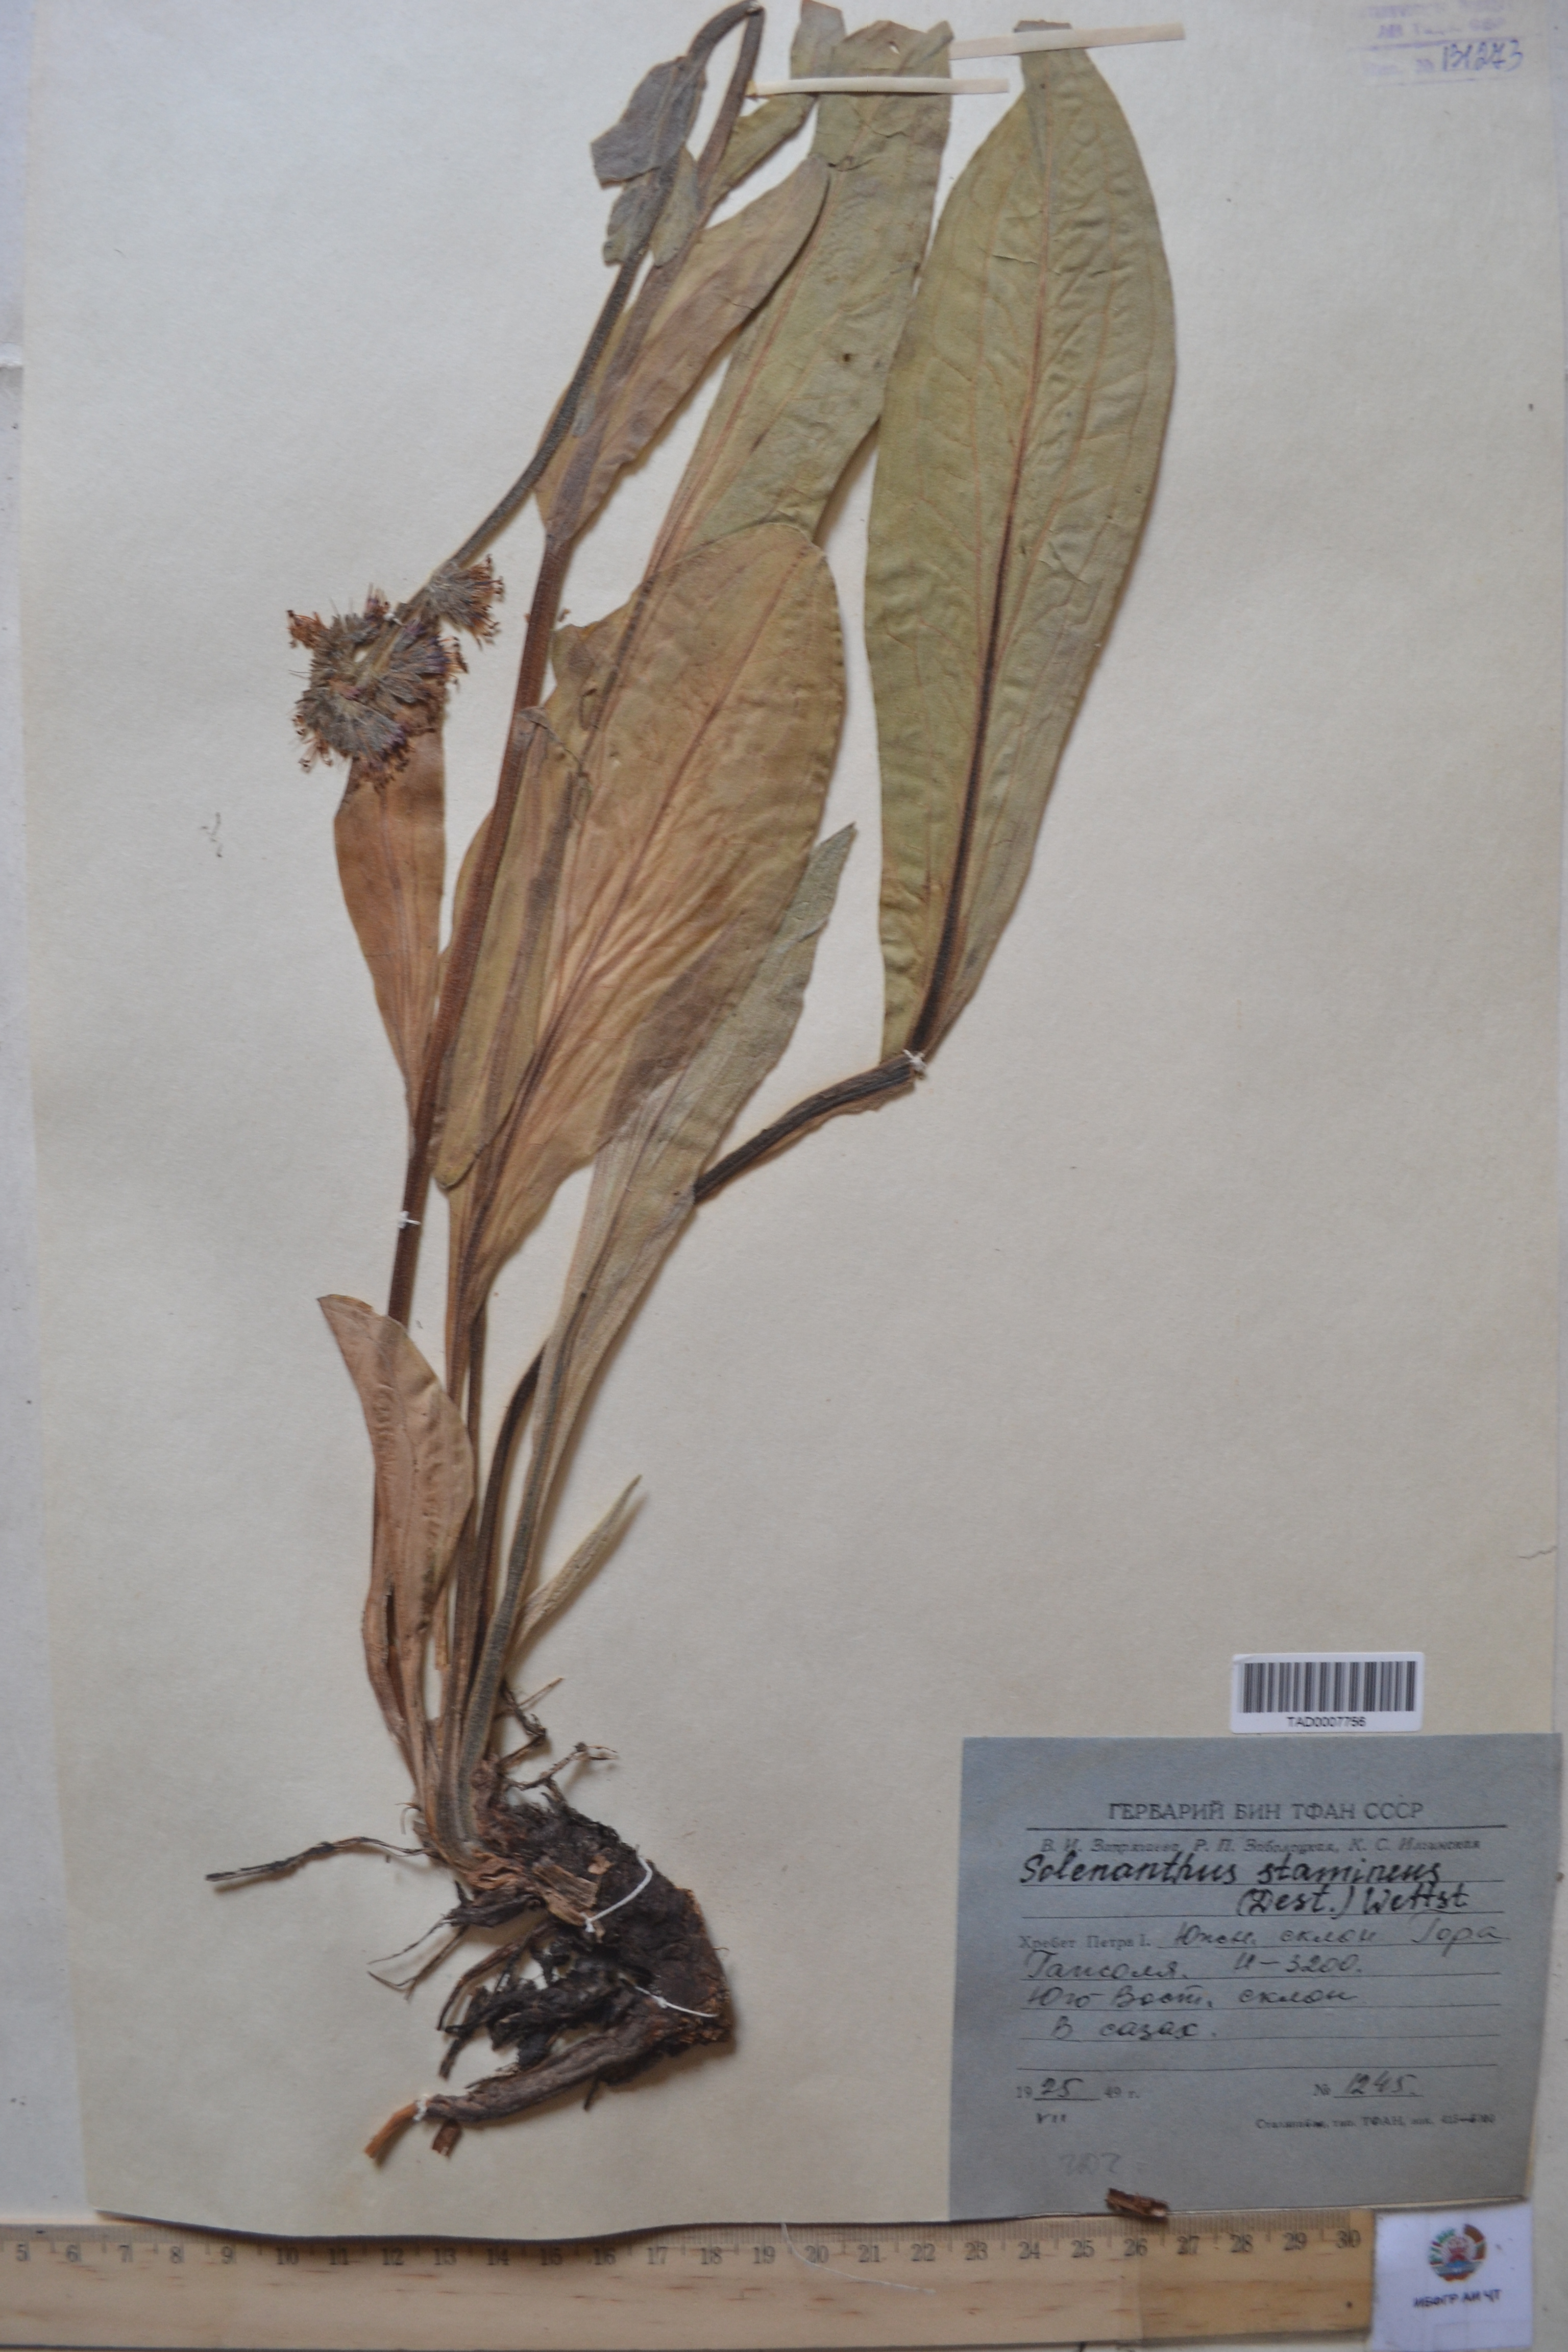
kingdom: Plantae
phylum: Tracheophyta
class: Magnoliopsida
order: Boraginales
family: Boraginaceae
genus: Solenanthus
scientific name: Solenanthus stamineus
